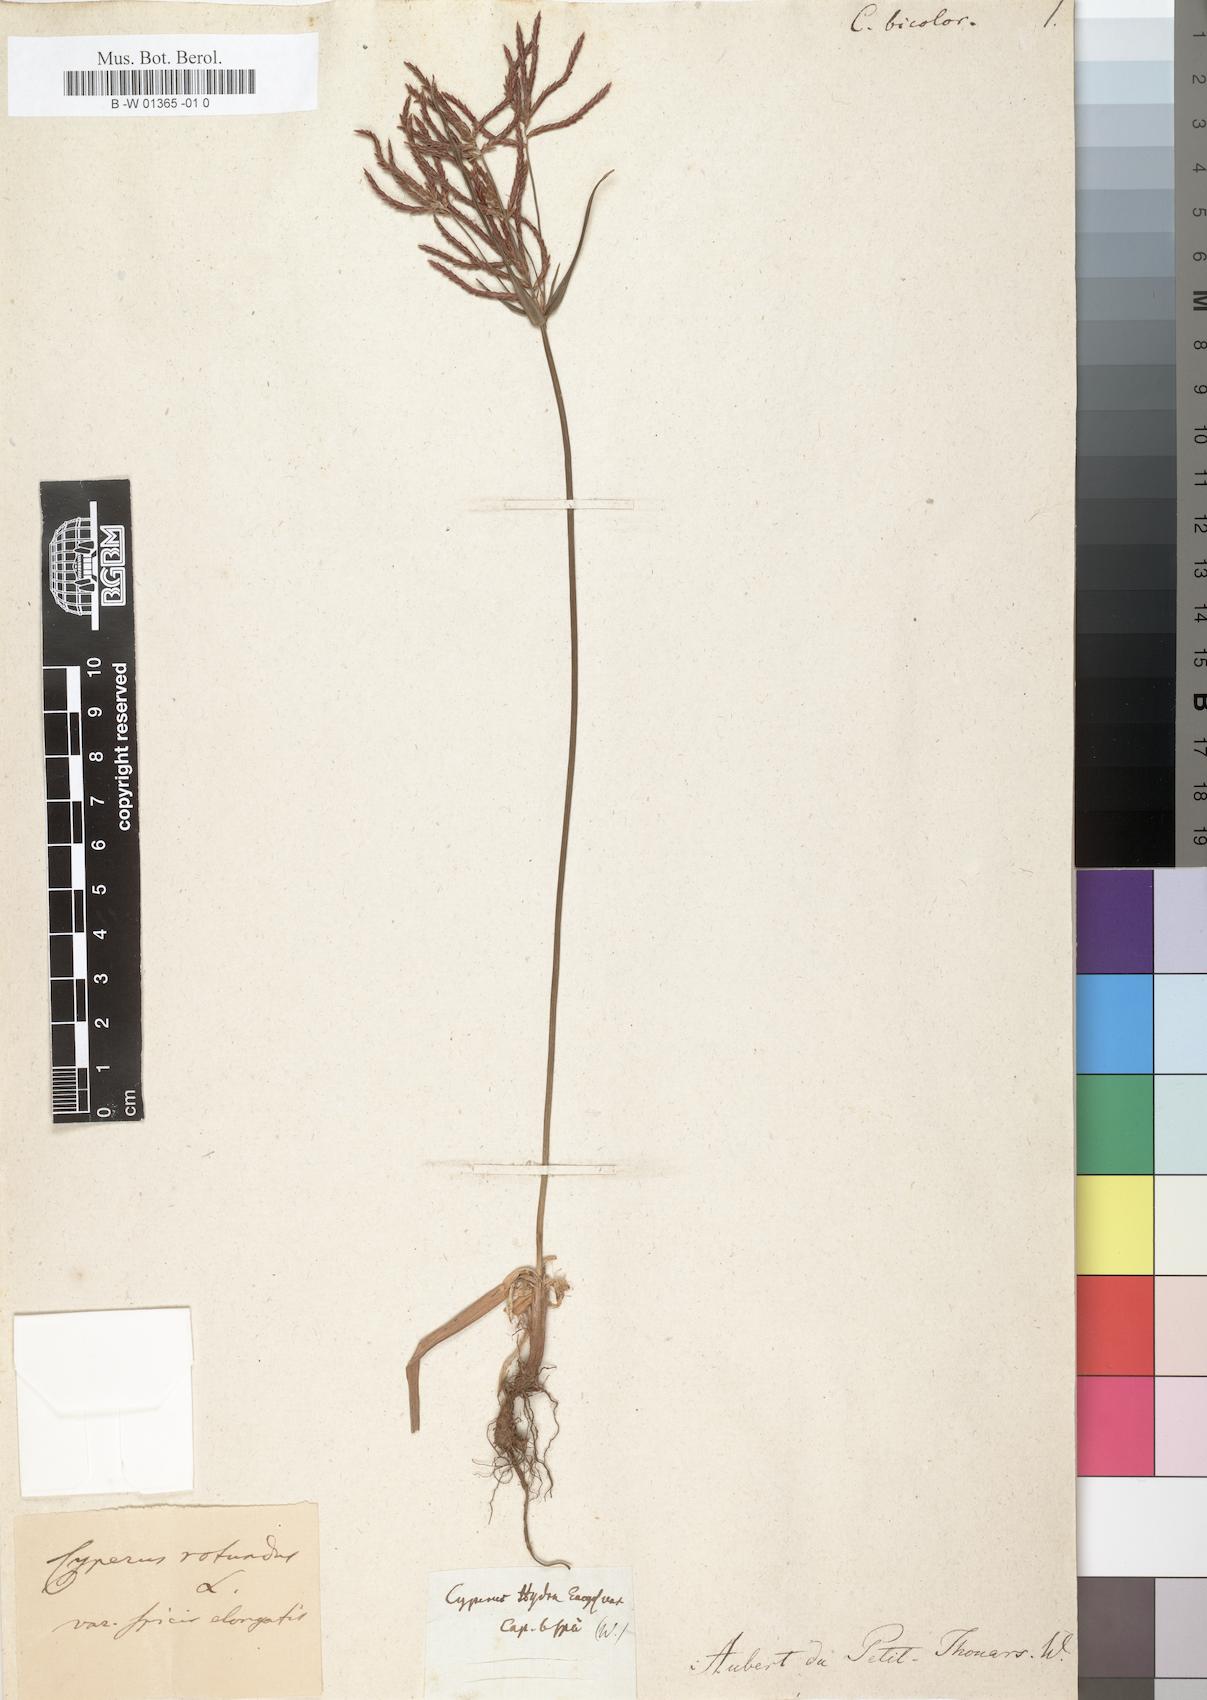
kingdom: Plantae
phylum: Tracheophyta
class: Liliopsida
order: Poales
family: Cyperaceae
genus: Cyperus
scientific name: Cyperus
